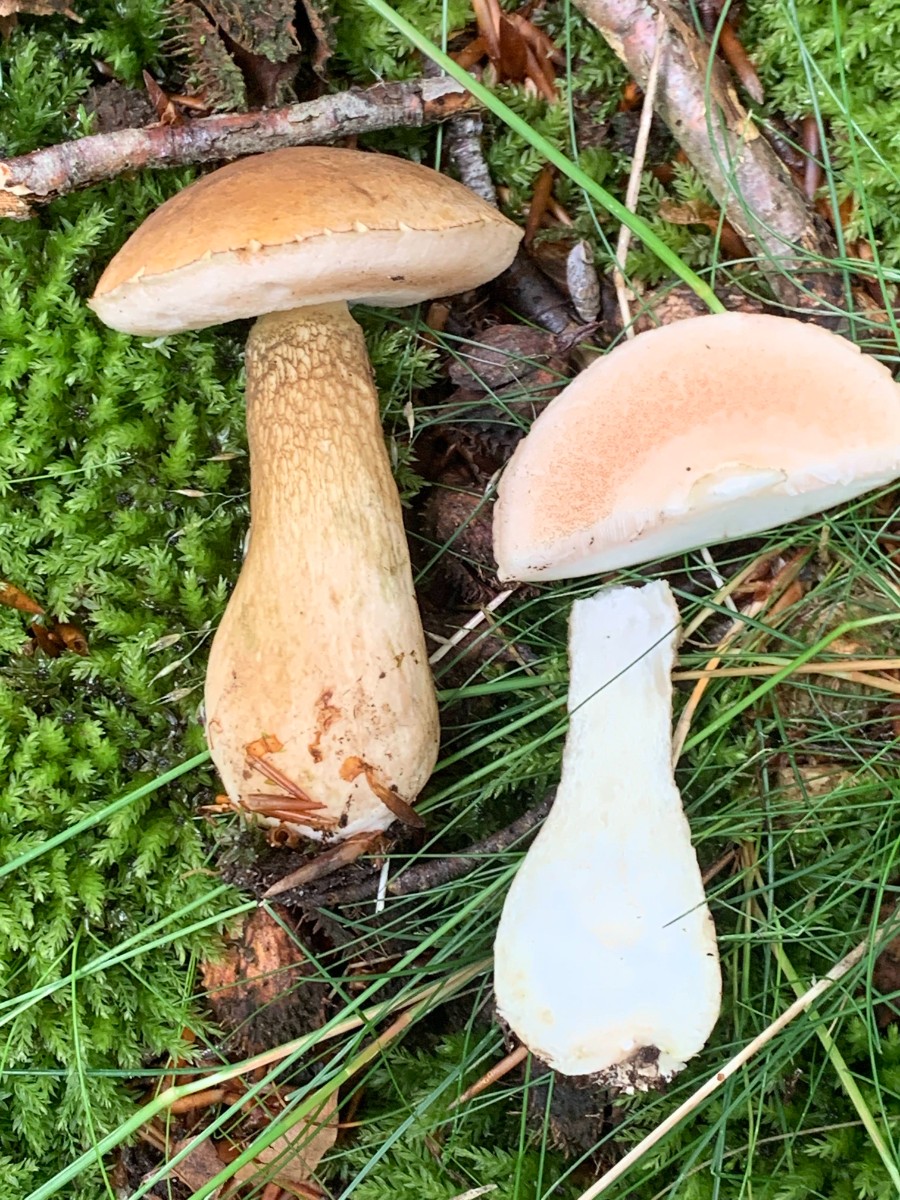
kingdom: Fungi
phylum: Basidiomycota
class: Agaricomycetes
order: Boletales
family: Boletaceae
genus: Tylopilus
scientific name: Tylopilus felleus
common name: galderørhat
